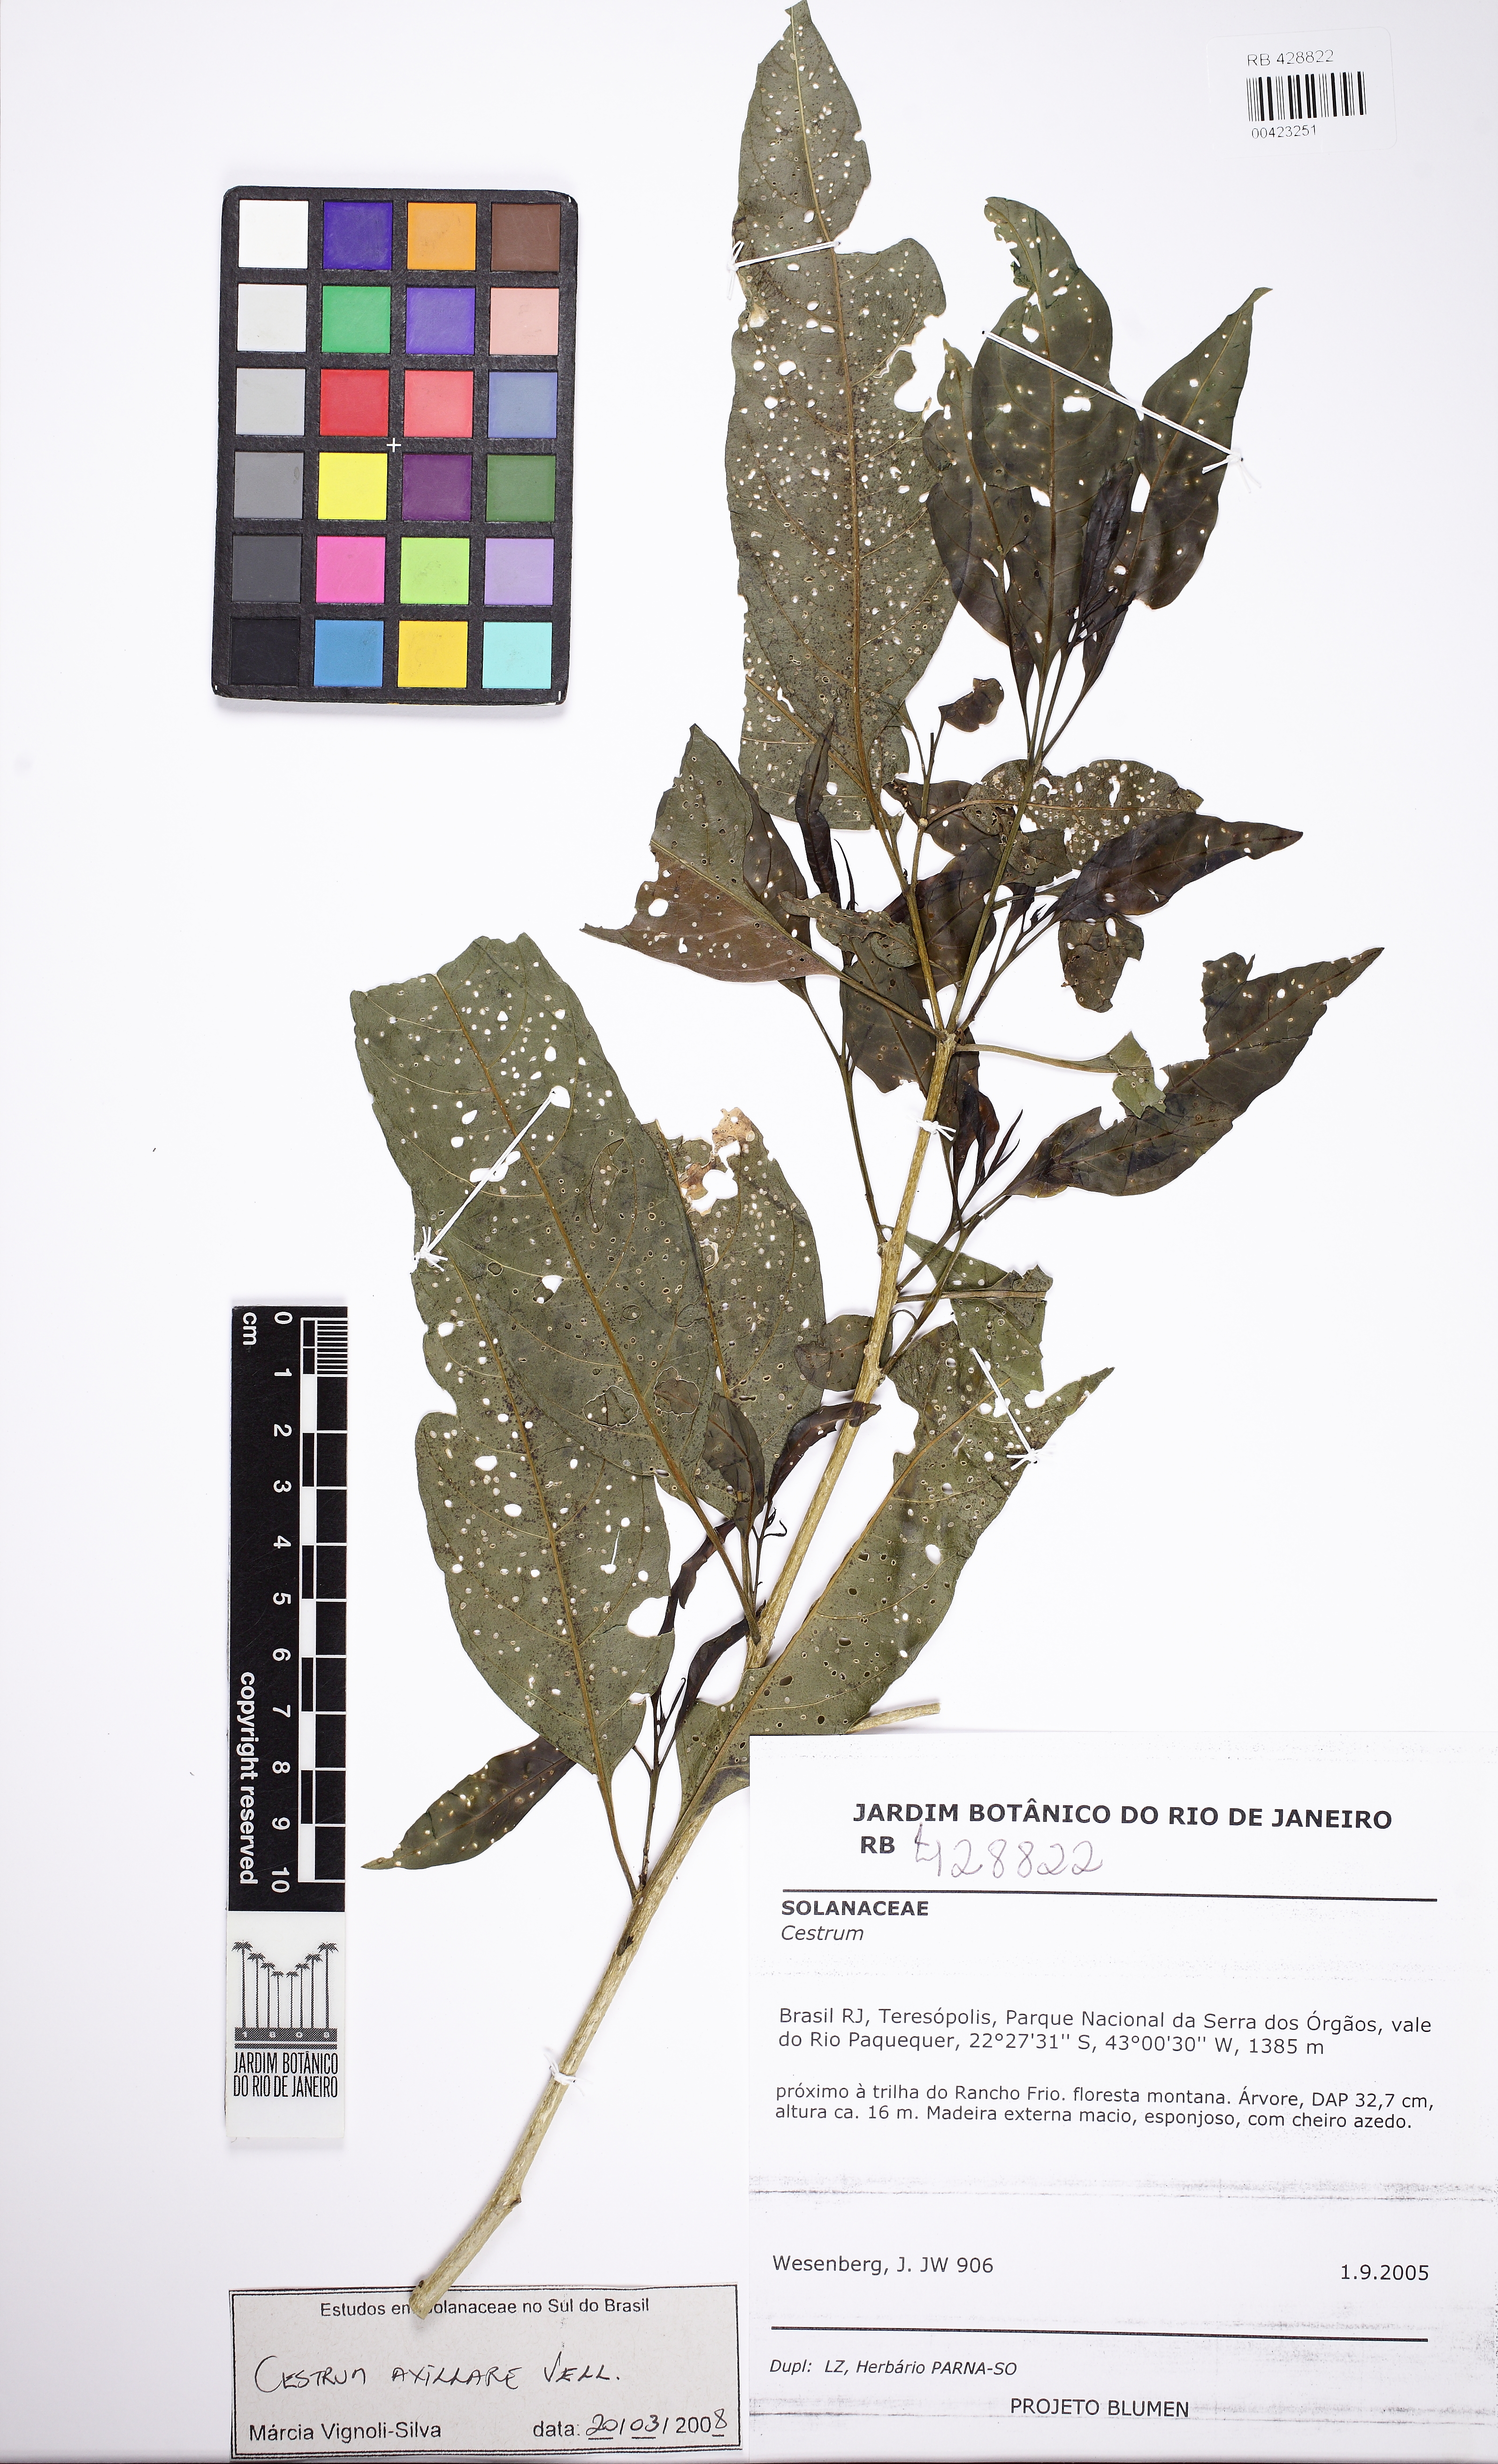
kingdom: Plantae
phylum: Tracheophyta
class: Magnoliopsida
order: Solanales
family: Solanaceae
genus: Cestrum
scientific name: Cestrum laevigatum
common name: Inkberry
